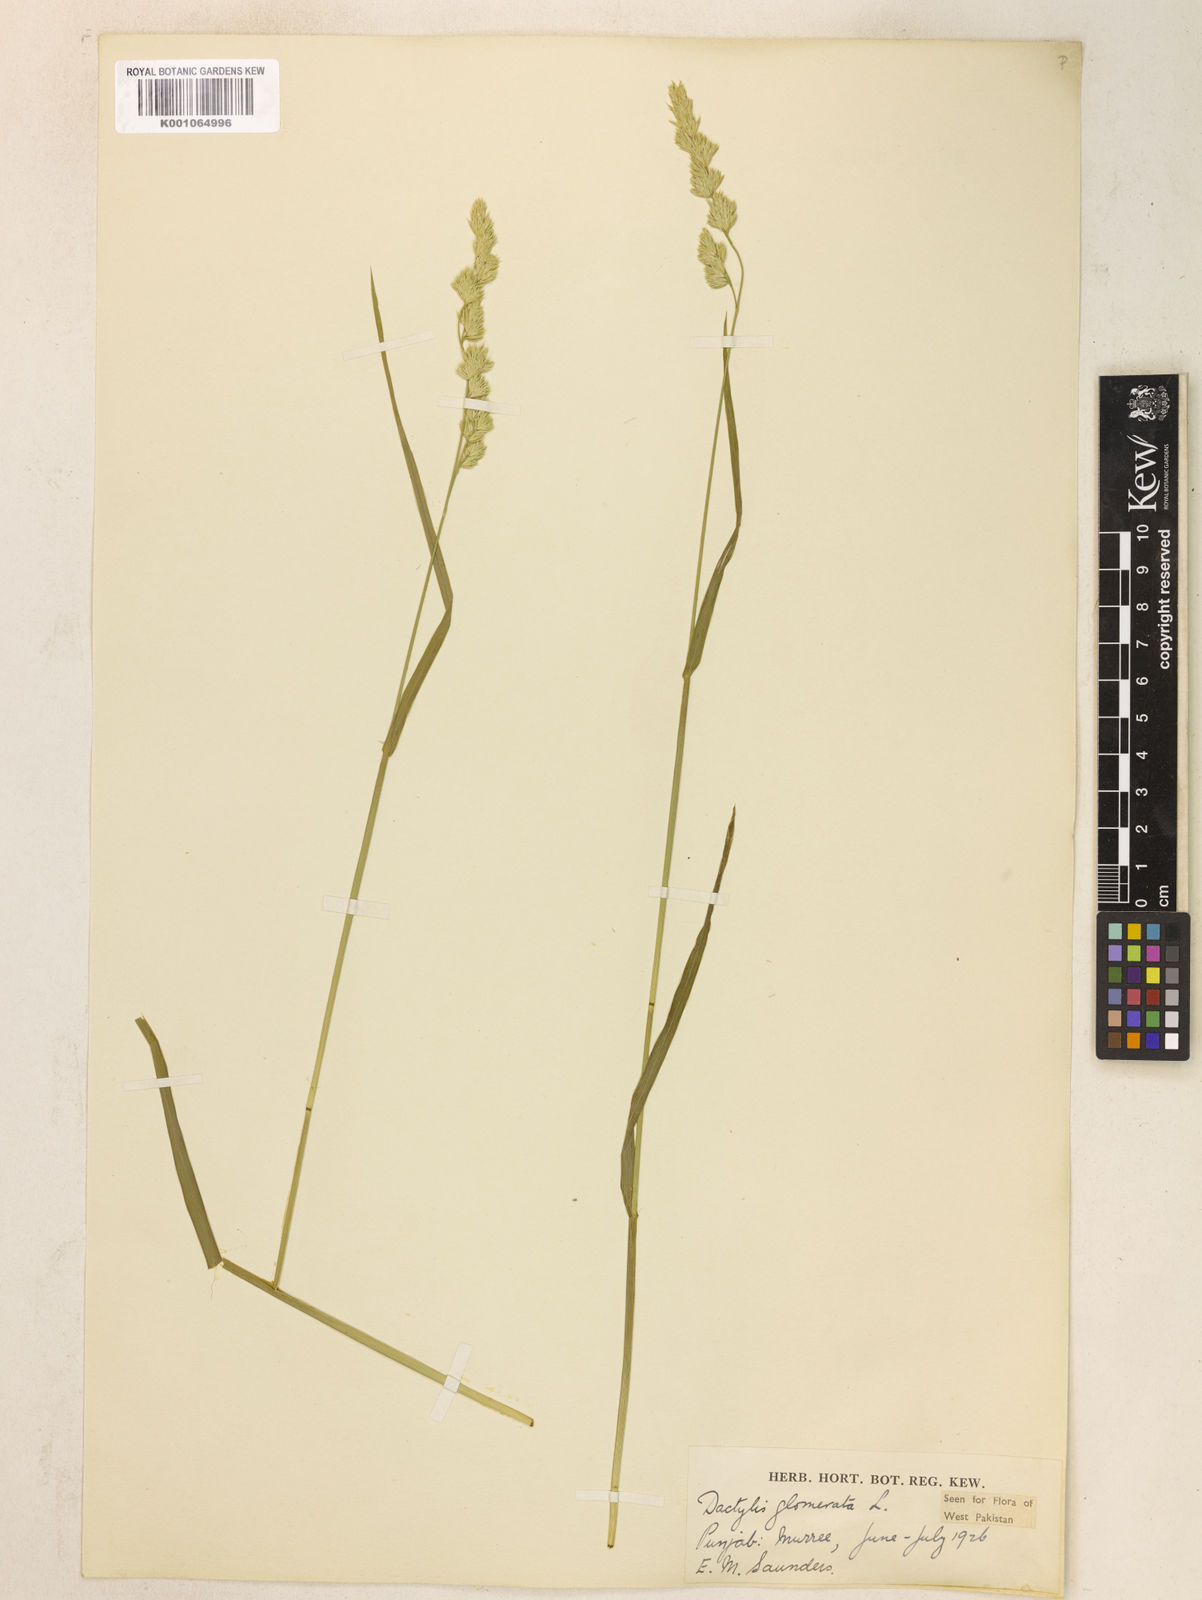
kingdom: Plantae
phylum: Tracheophyta
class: Liliopsida
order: Poales
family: Poaceae
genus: Dactylis
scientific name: Dactylis glomerata
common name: Orchardgrass
